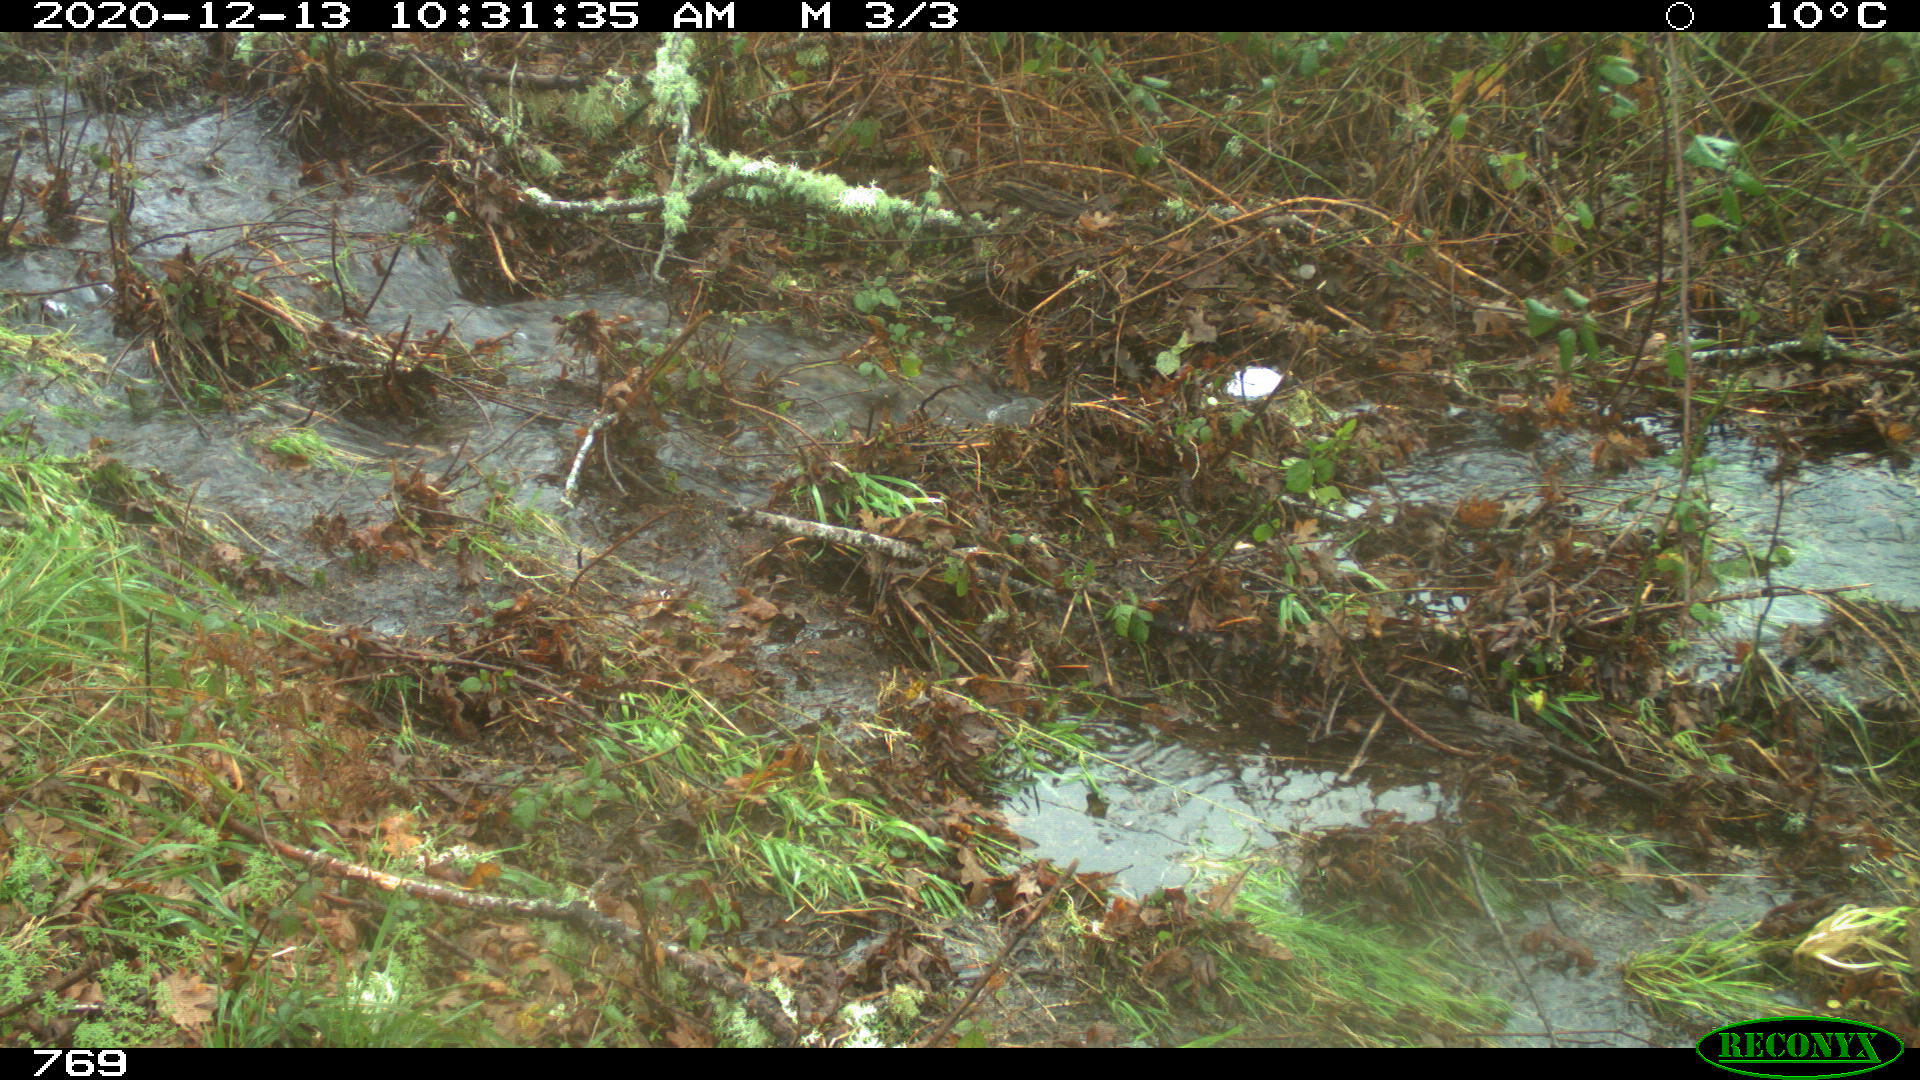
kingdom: Animalia
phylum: Chordata
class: Mammalia
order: Carnivora
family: Canidae
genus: Canis
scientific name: Canis lupus
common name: Gray wolf
